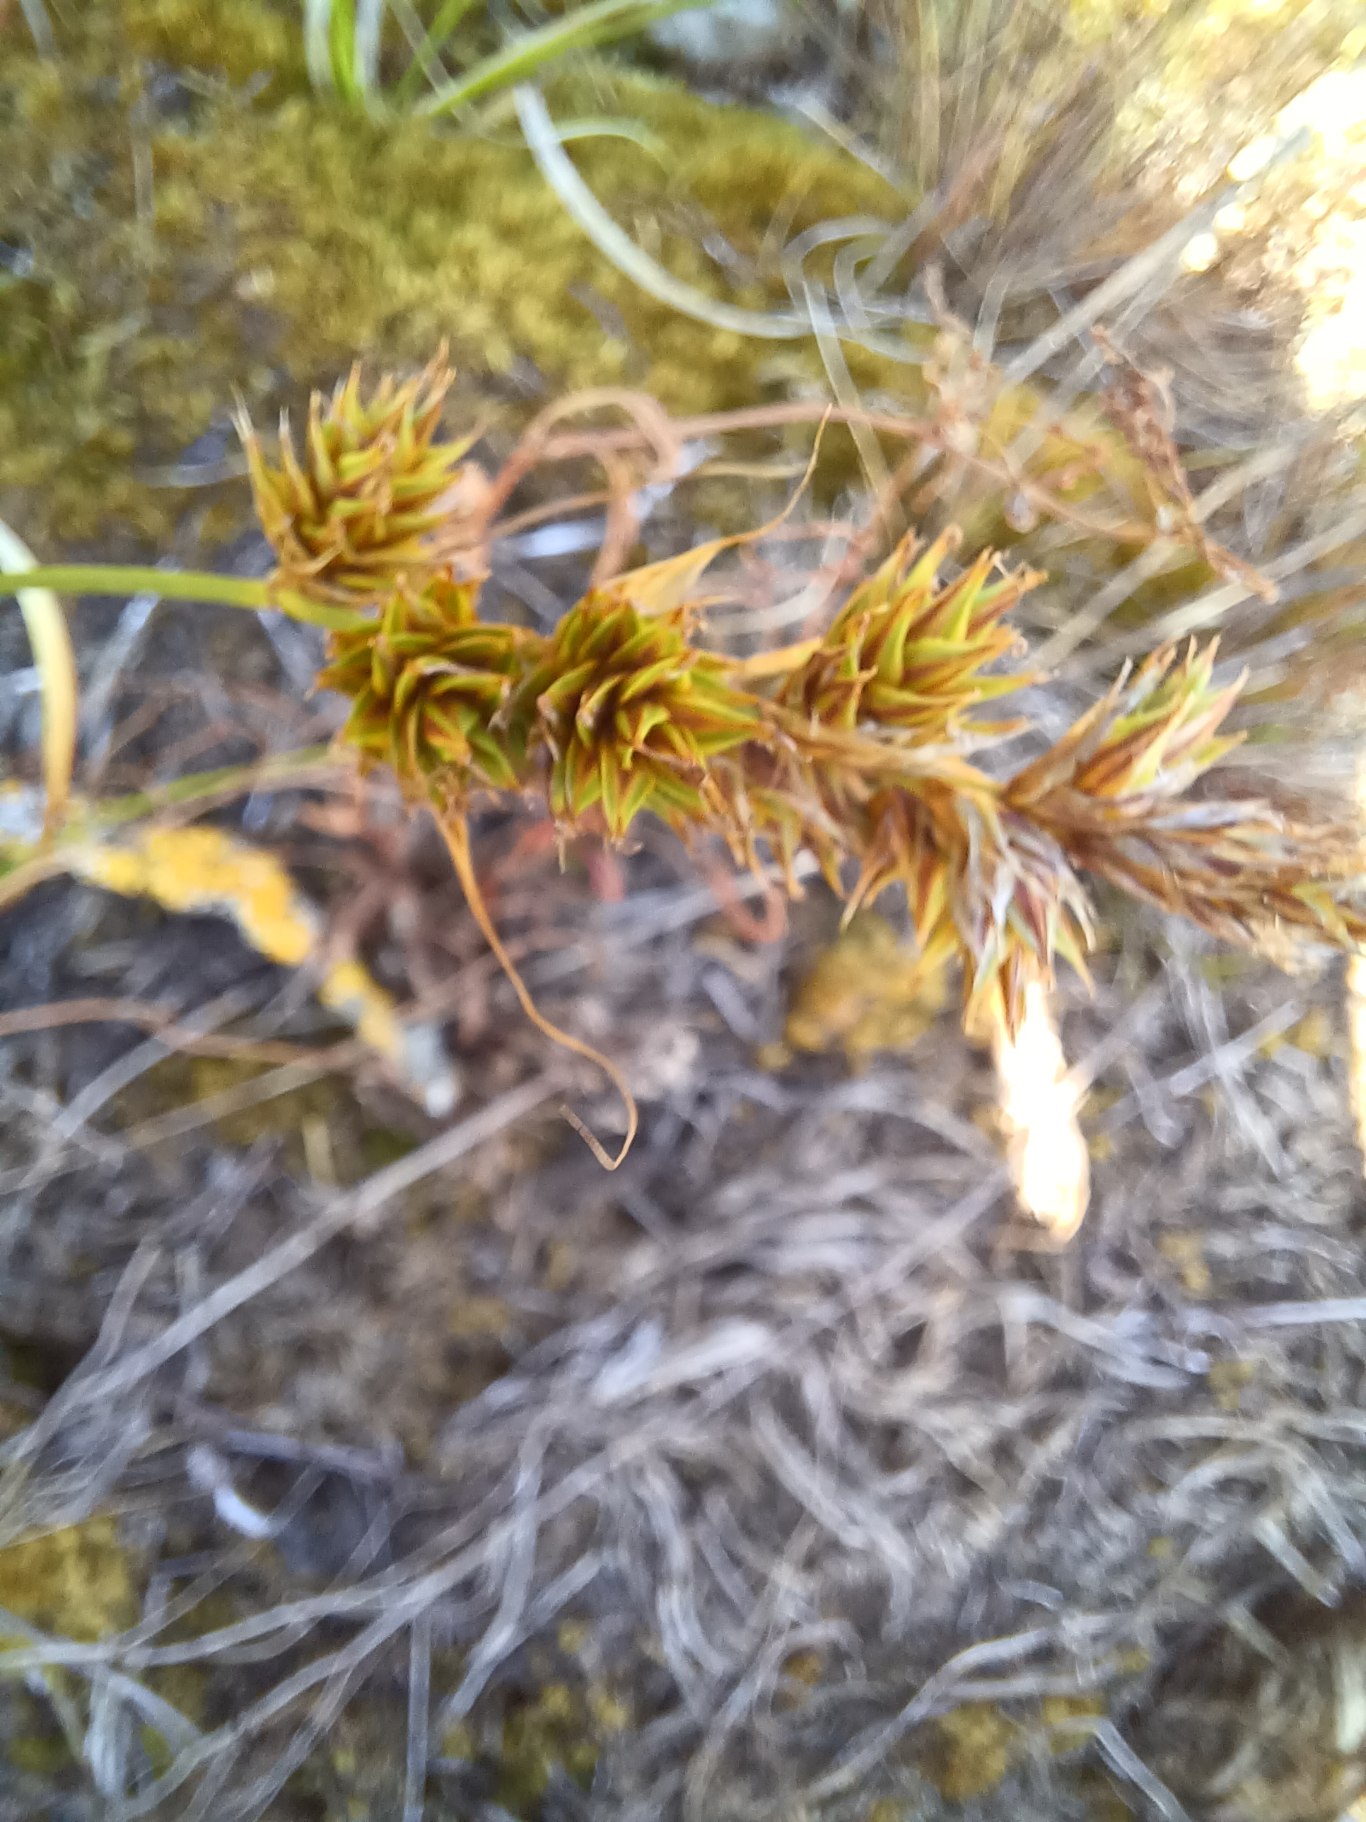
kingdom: Plantae
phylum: Tracheophyta
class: Liliopsida
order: Poales
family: Cyperaceae
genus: Carex
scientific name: Carex arenaria
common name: Sand-star
